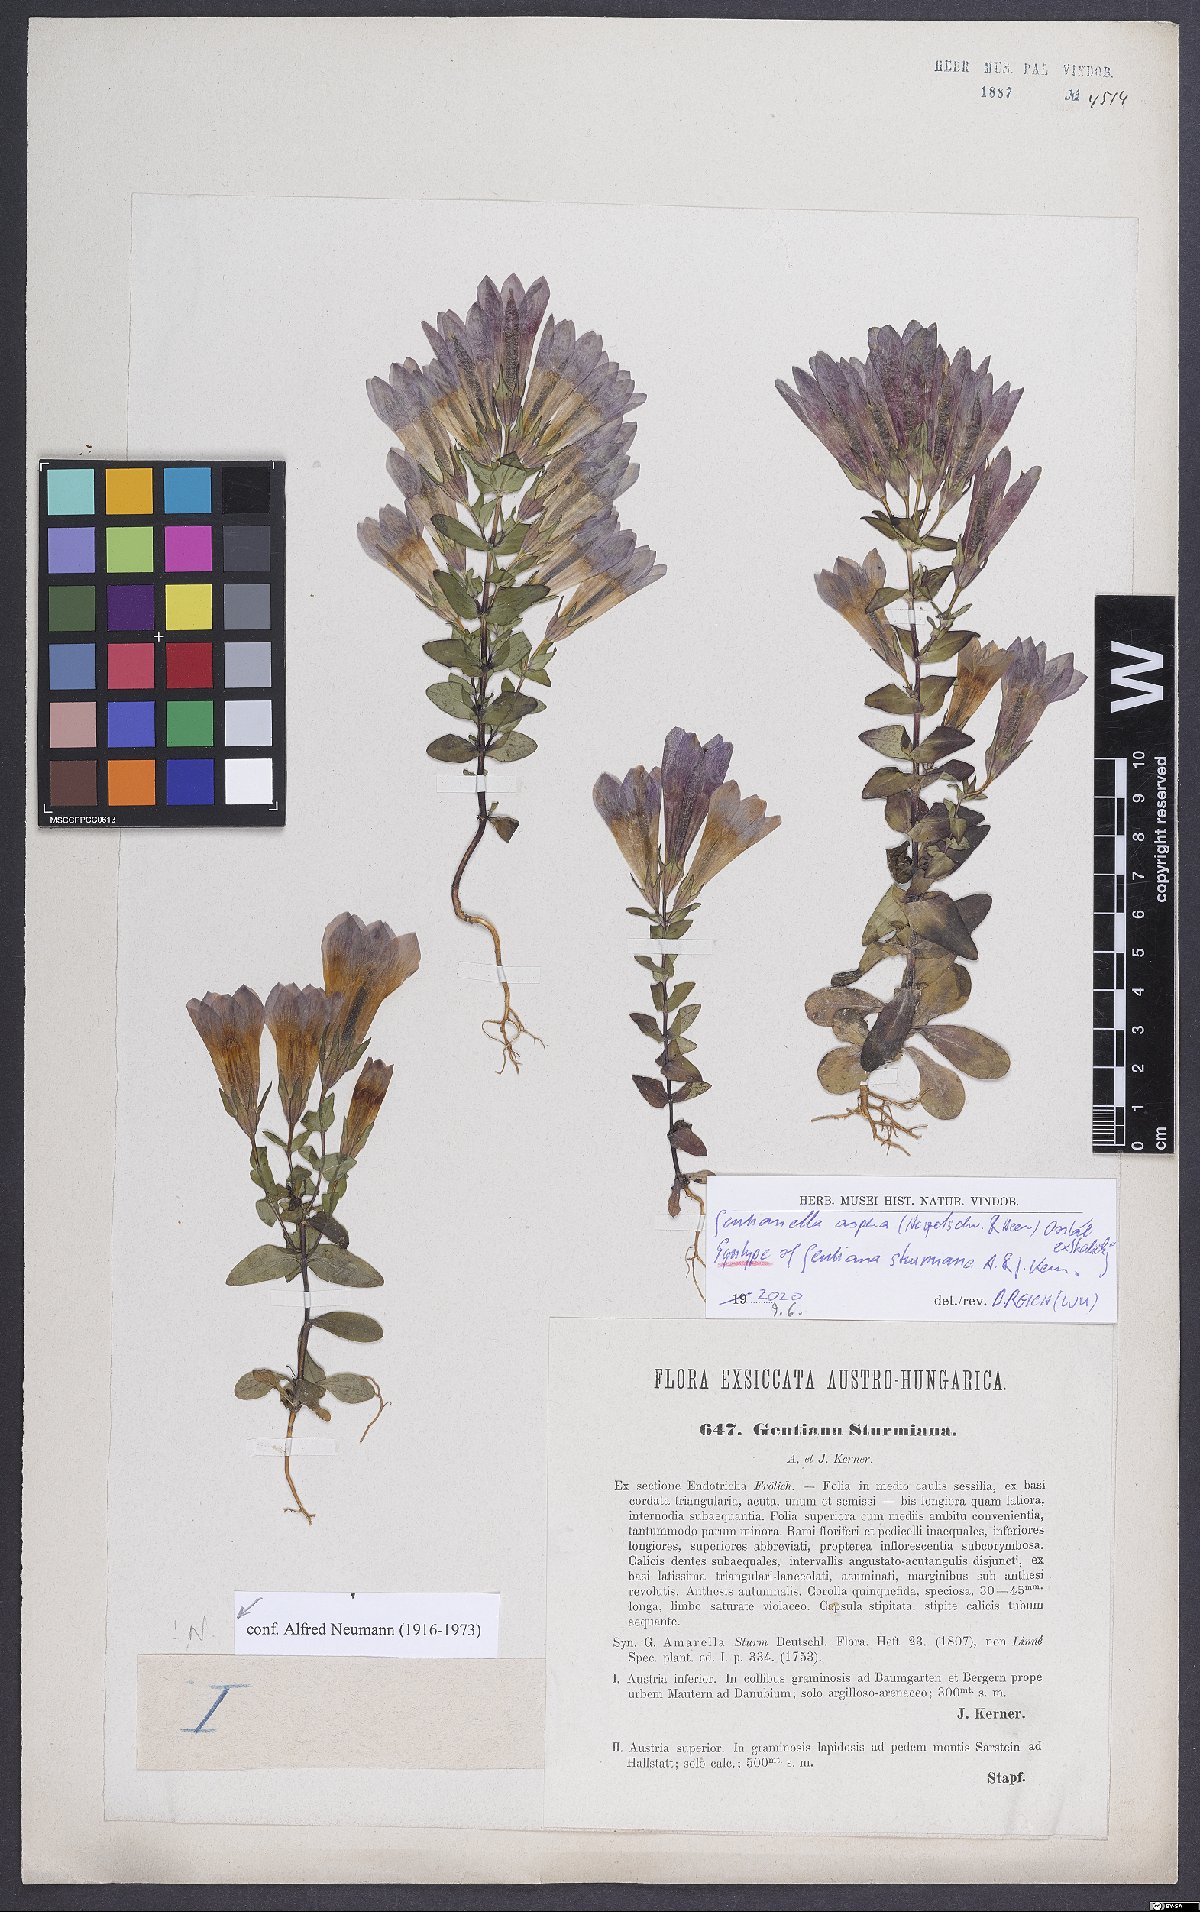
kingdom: Plantae
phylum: Tracheophyta
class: Magnoliopsida
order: Gentianales
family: Gentianaceae
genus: Gentianella
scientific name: Gentianella obtusifolia
